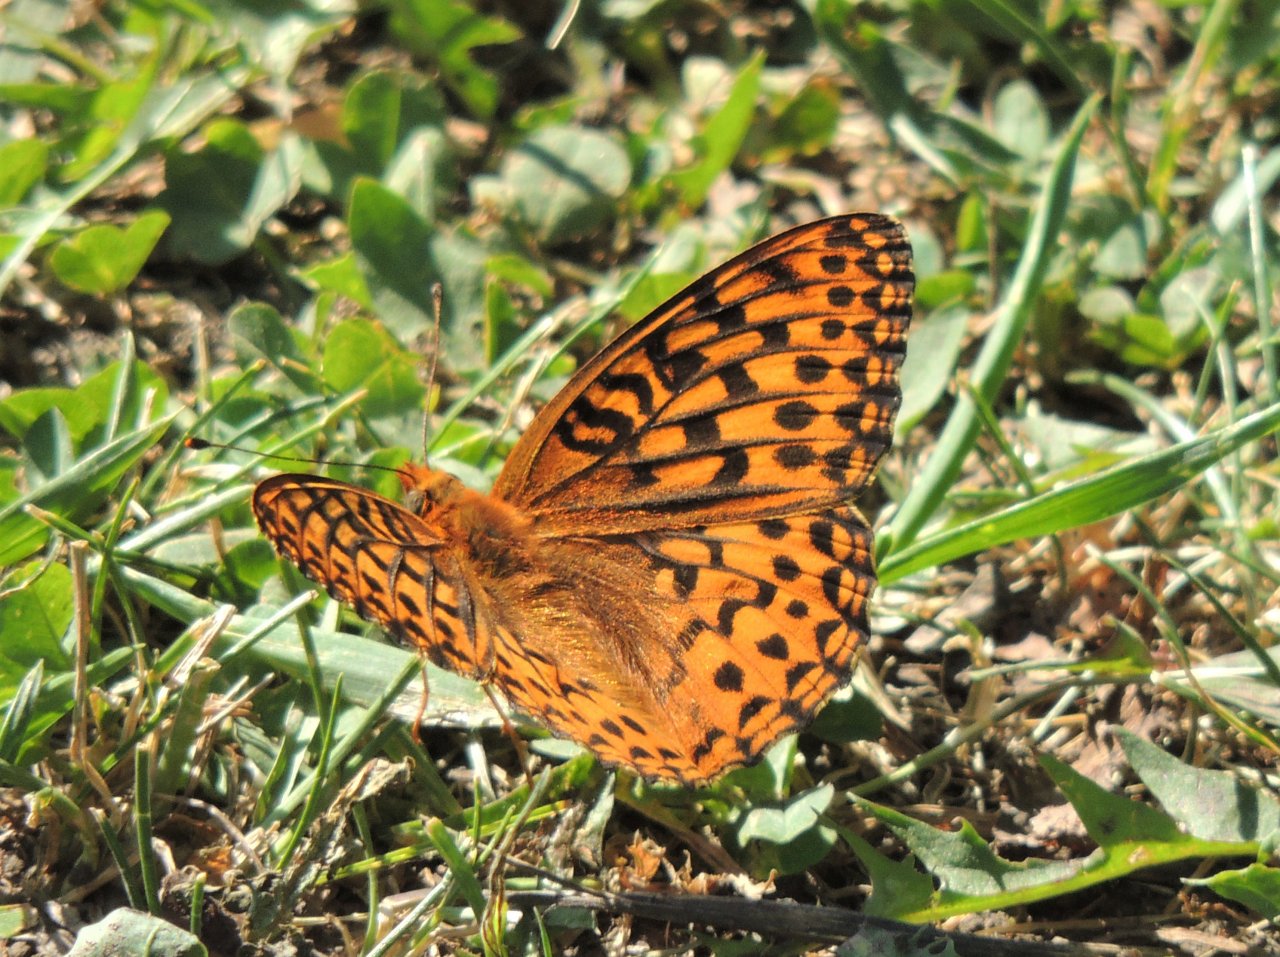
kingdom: Animalia
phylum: Arthropoda
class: Insecta
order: Lepidoptera
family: Nymphalidae
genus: Speyeria
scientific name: Speyeria hydaspe
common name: Hydaspe Fritillary
